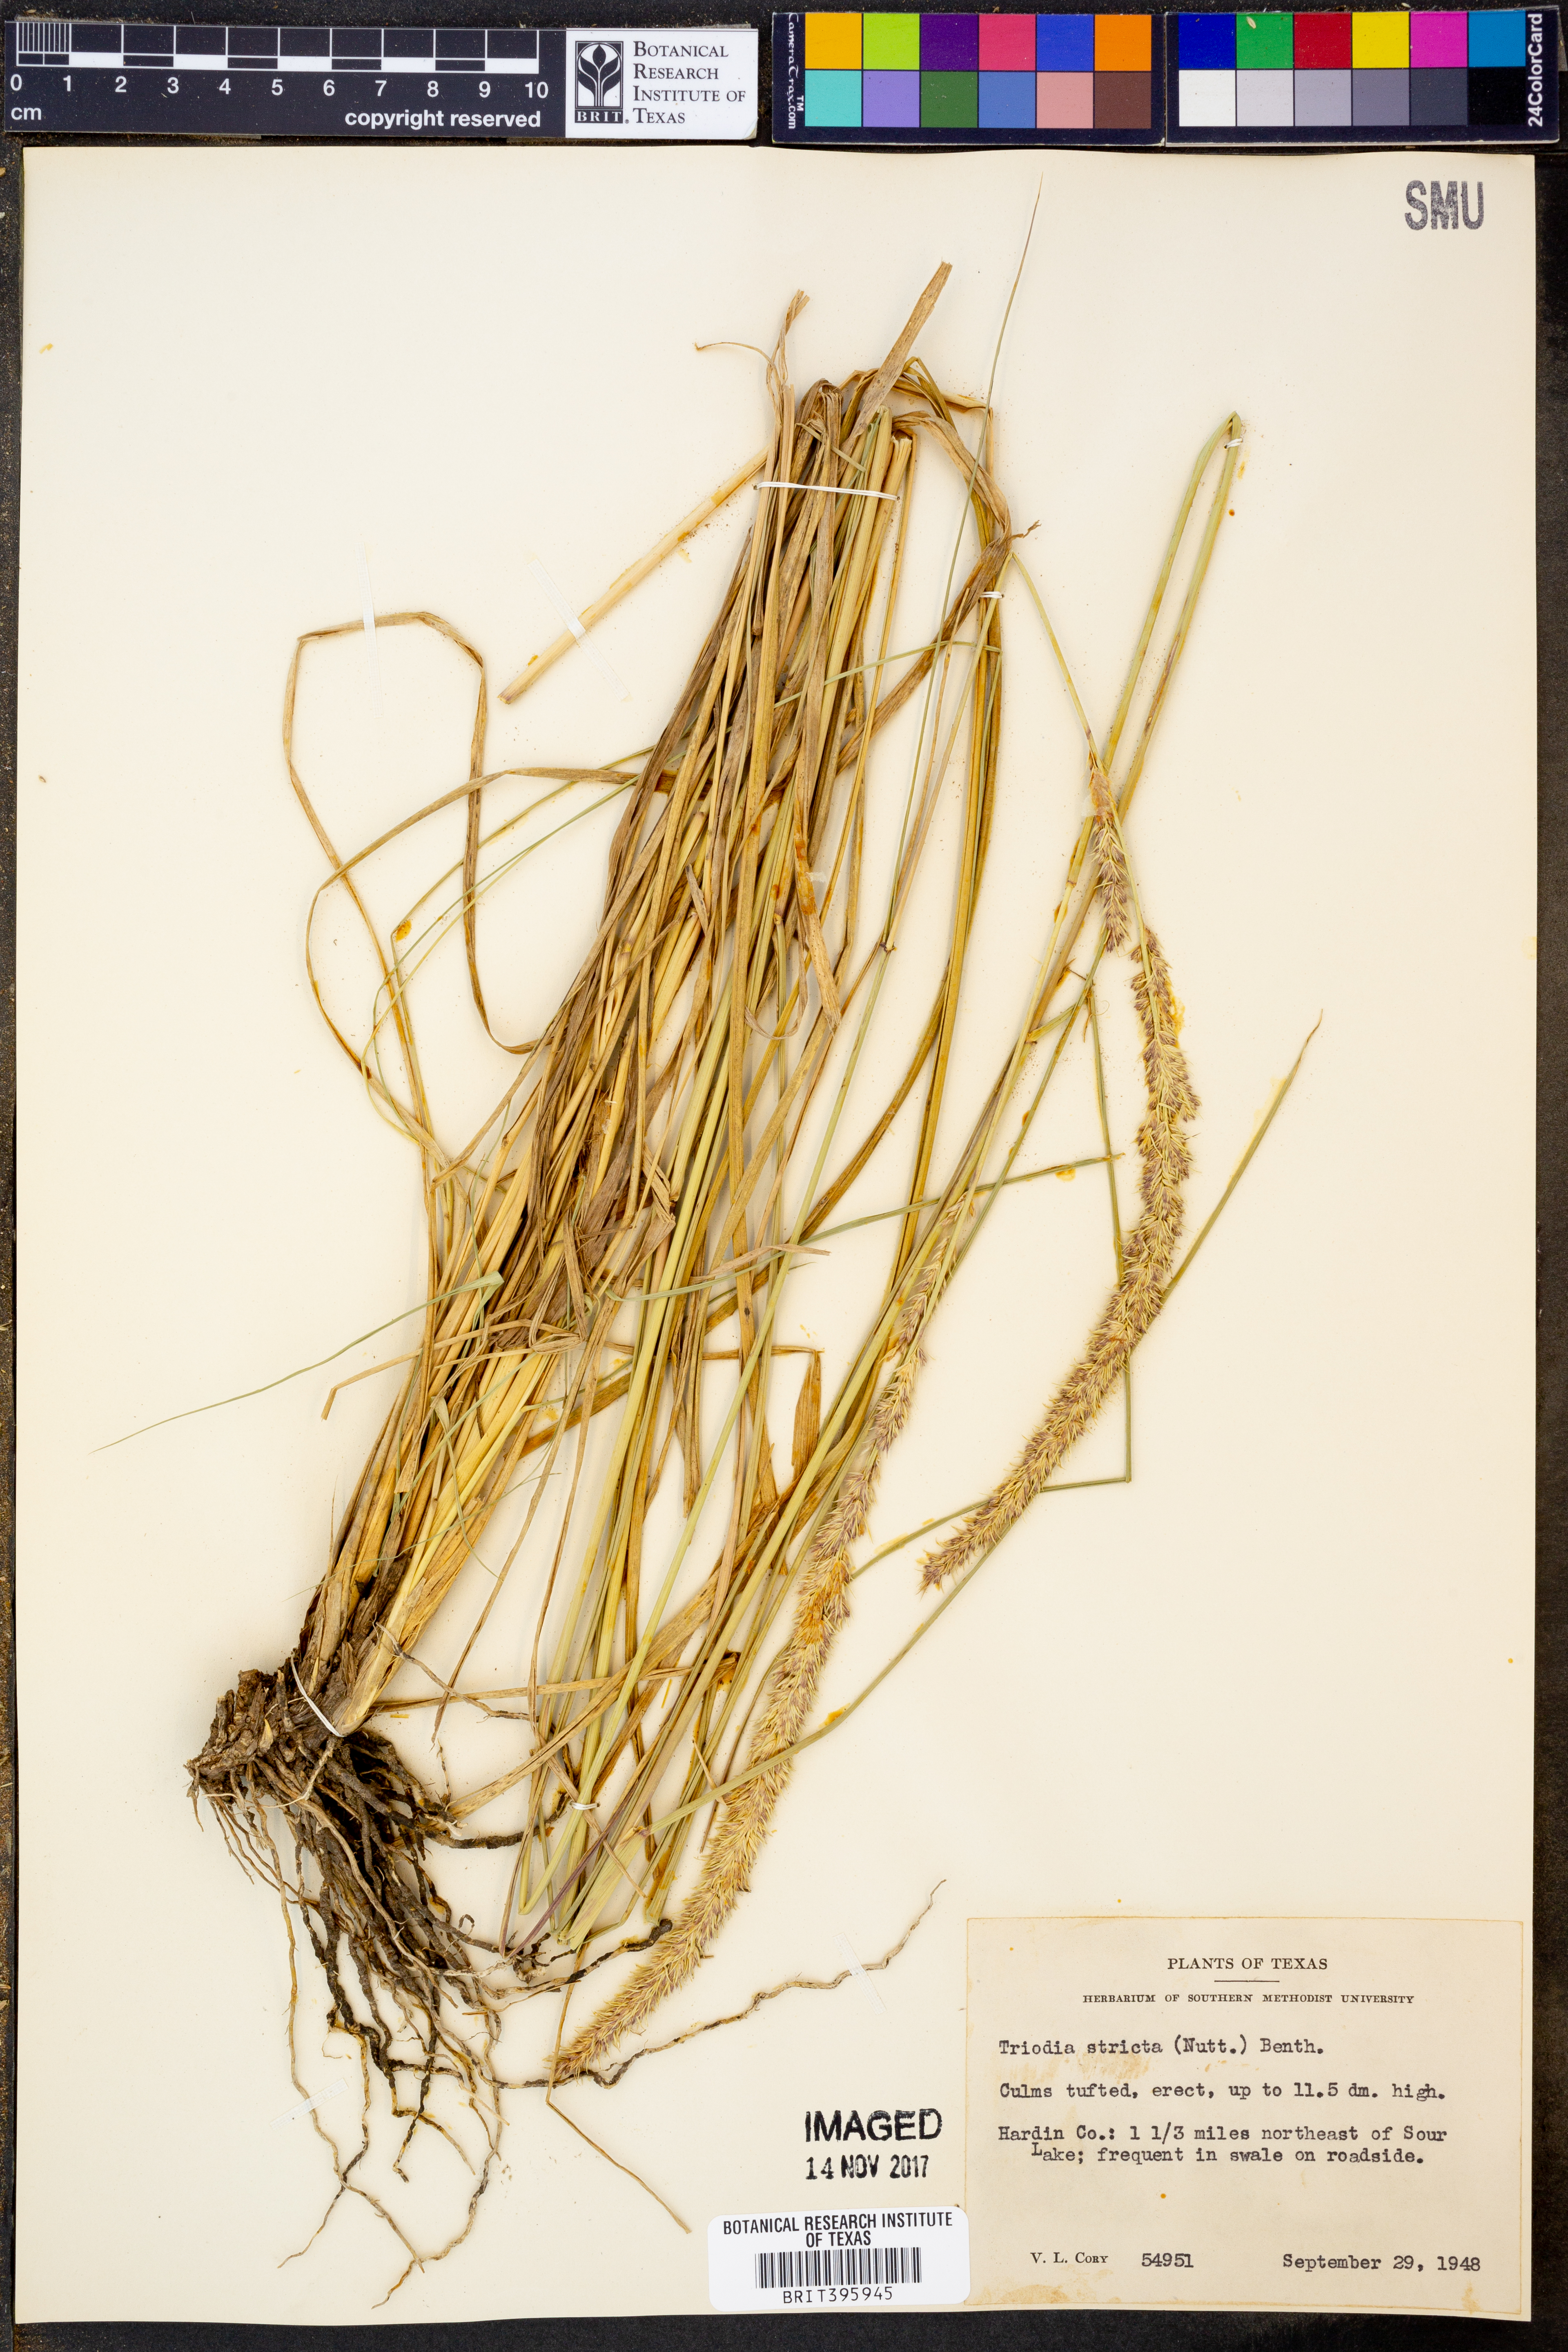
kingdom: Plantae
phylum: Tracheophyta
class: Liliopsida
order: Poales
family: Poaceae
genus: Tridens
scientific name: Tridens strictus
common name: Long-spike tridens
